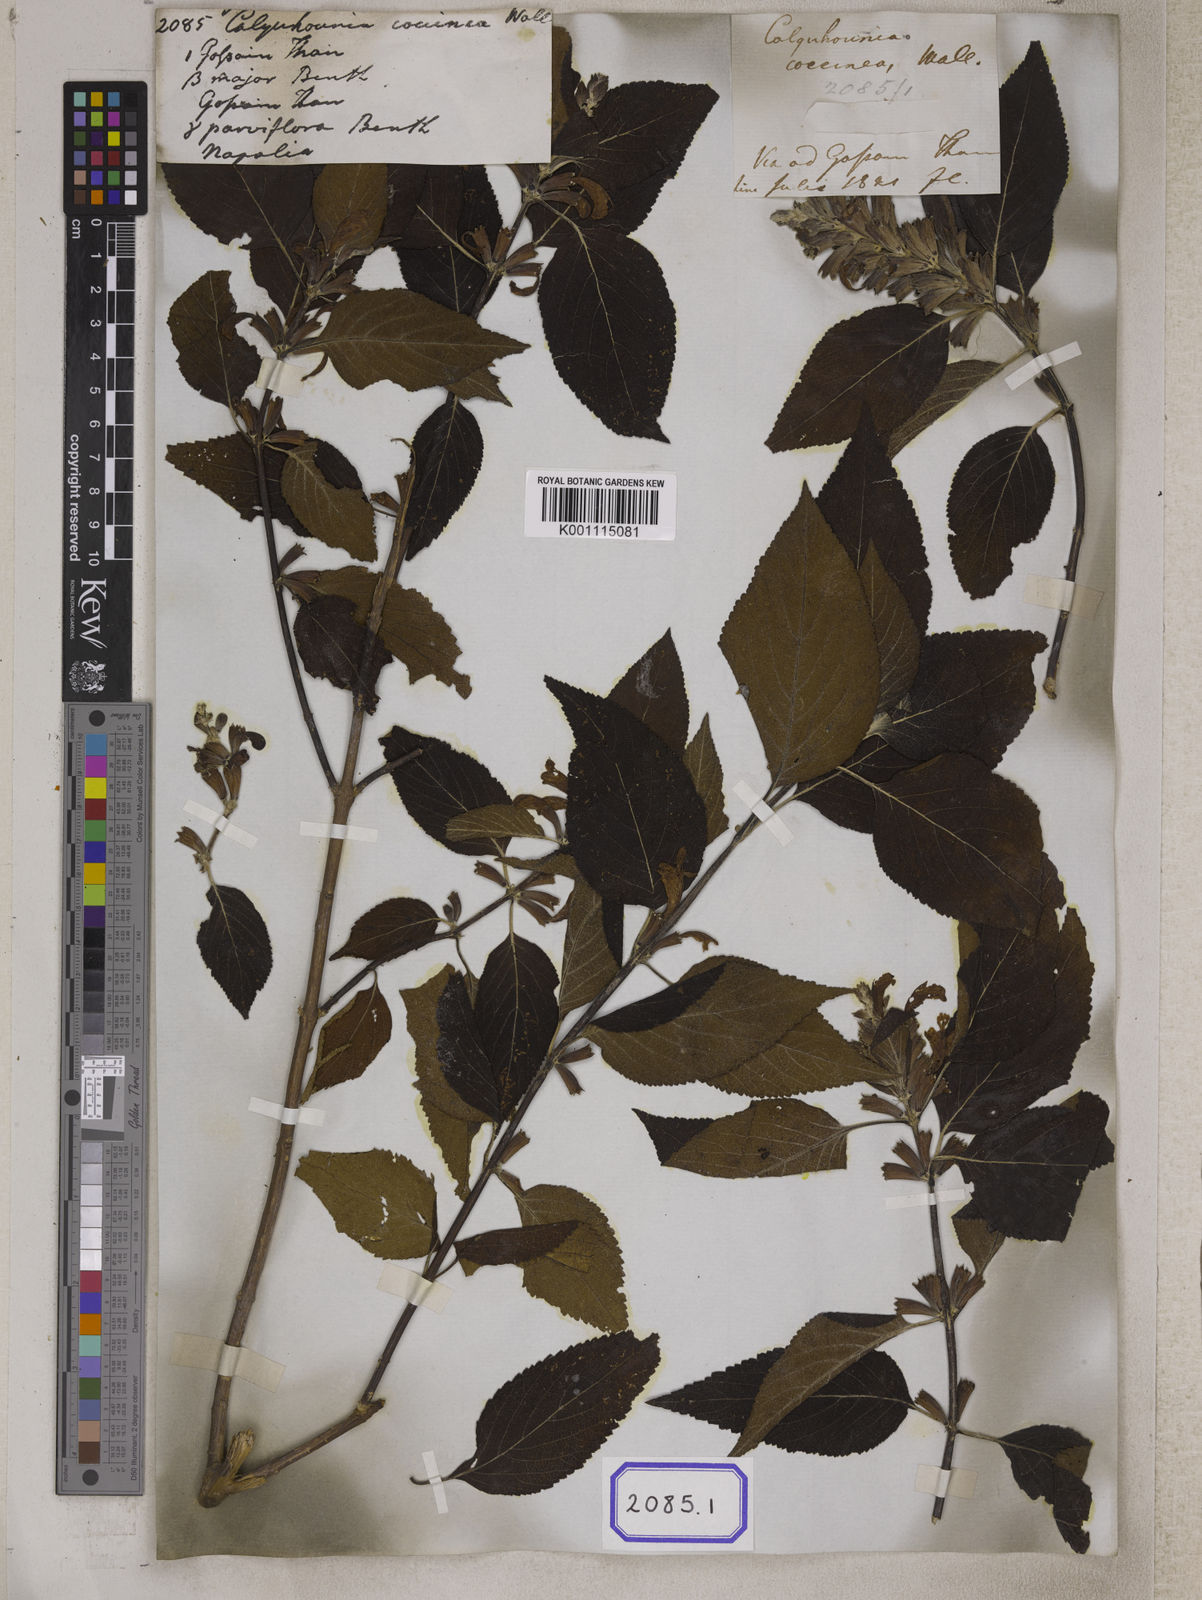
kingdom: Plantae
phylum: Tracheophyta
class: Magnoliopsida
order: Lamiales
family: Lamiaceae
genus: Colquhounia
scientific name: Colquhounia coccinea
